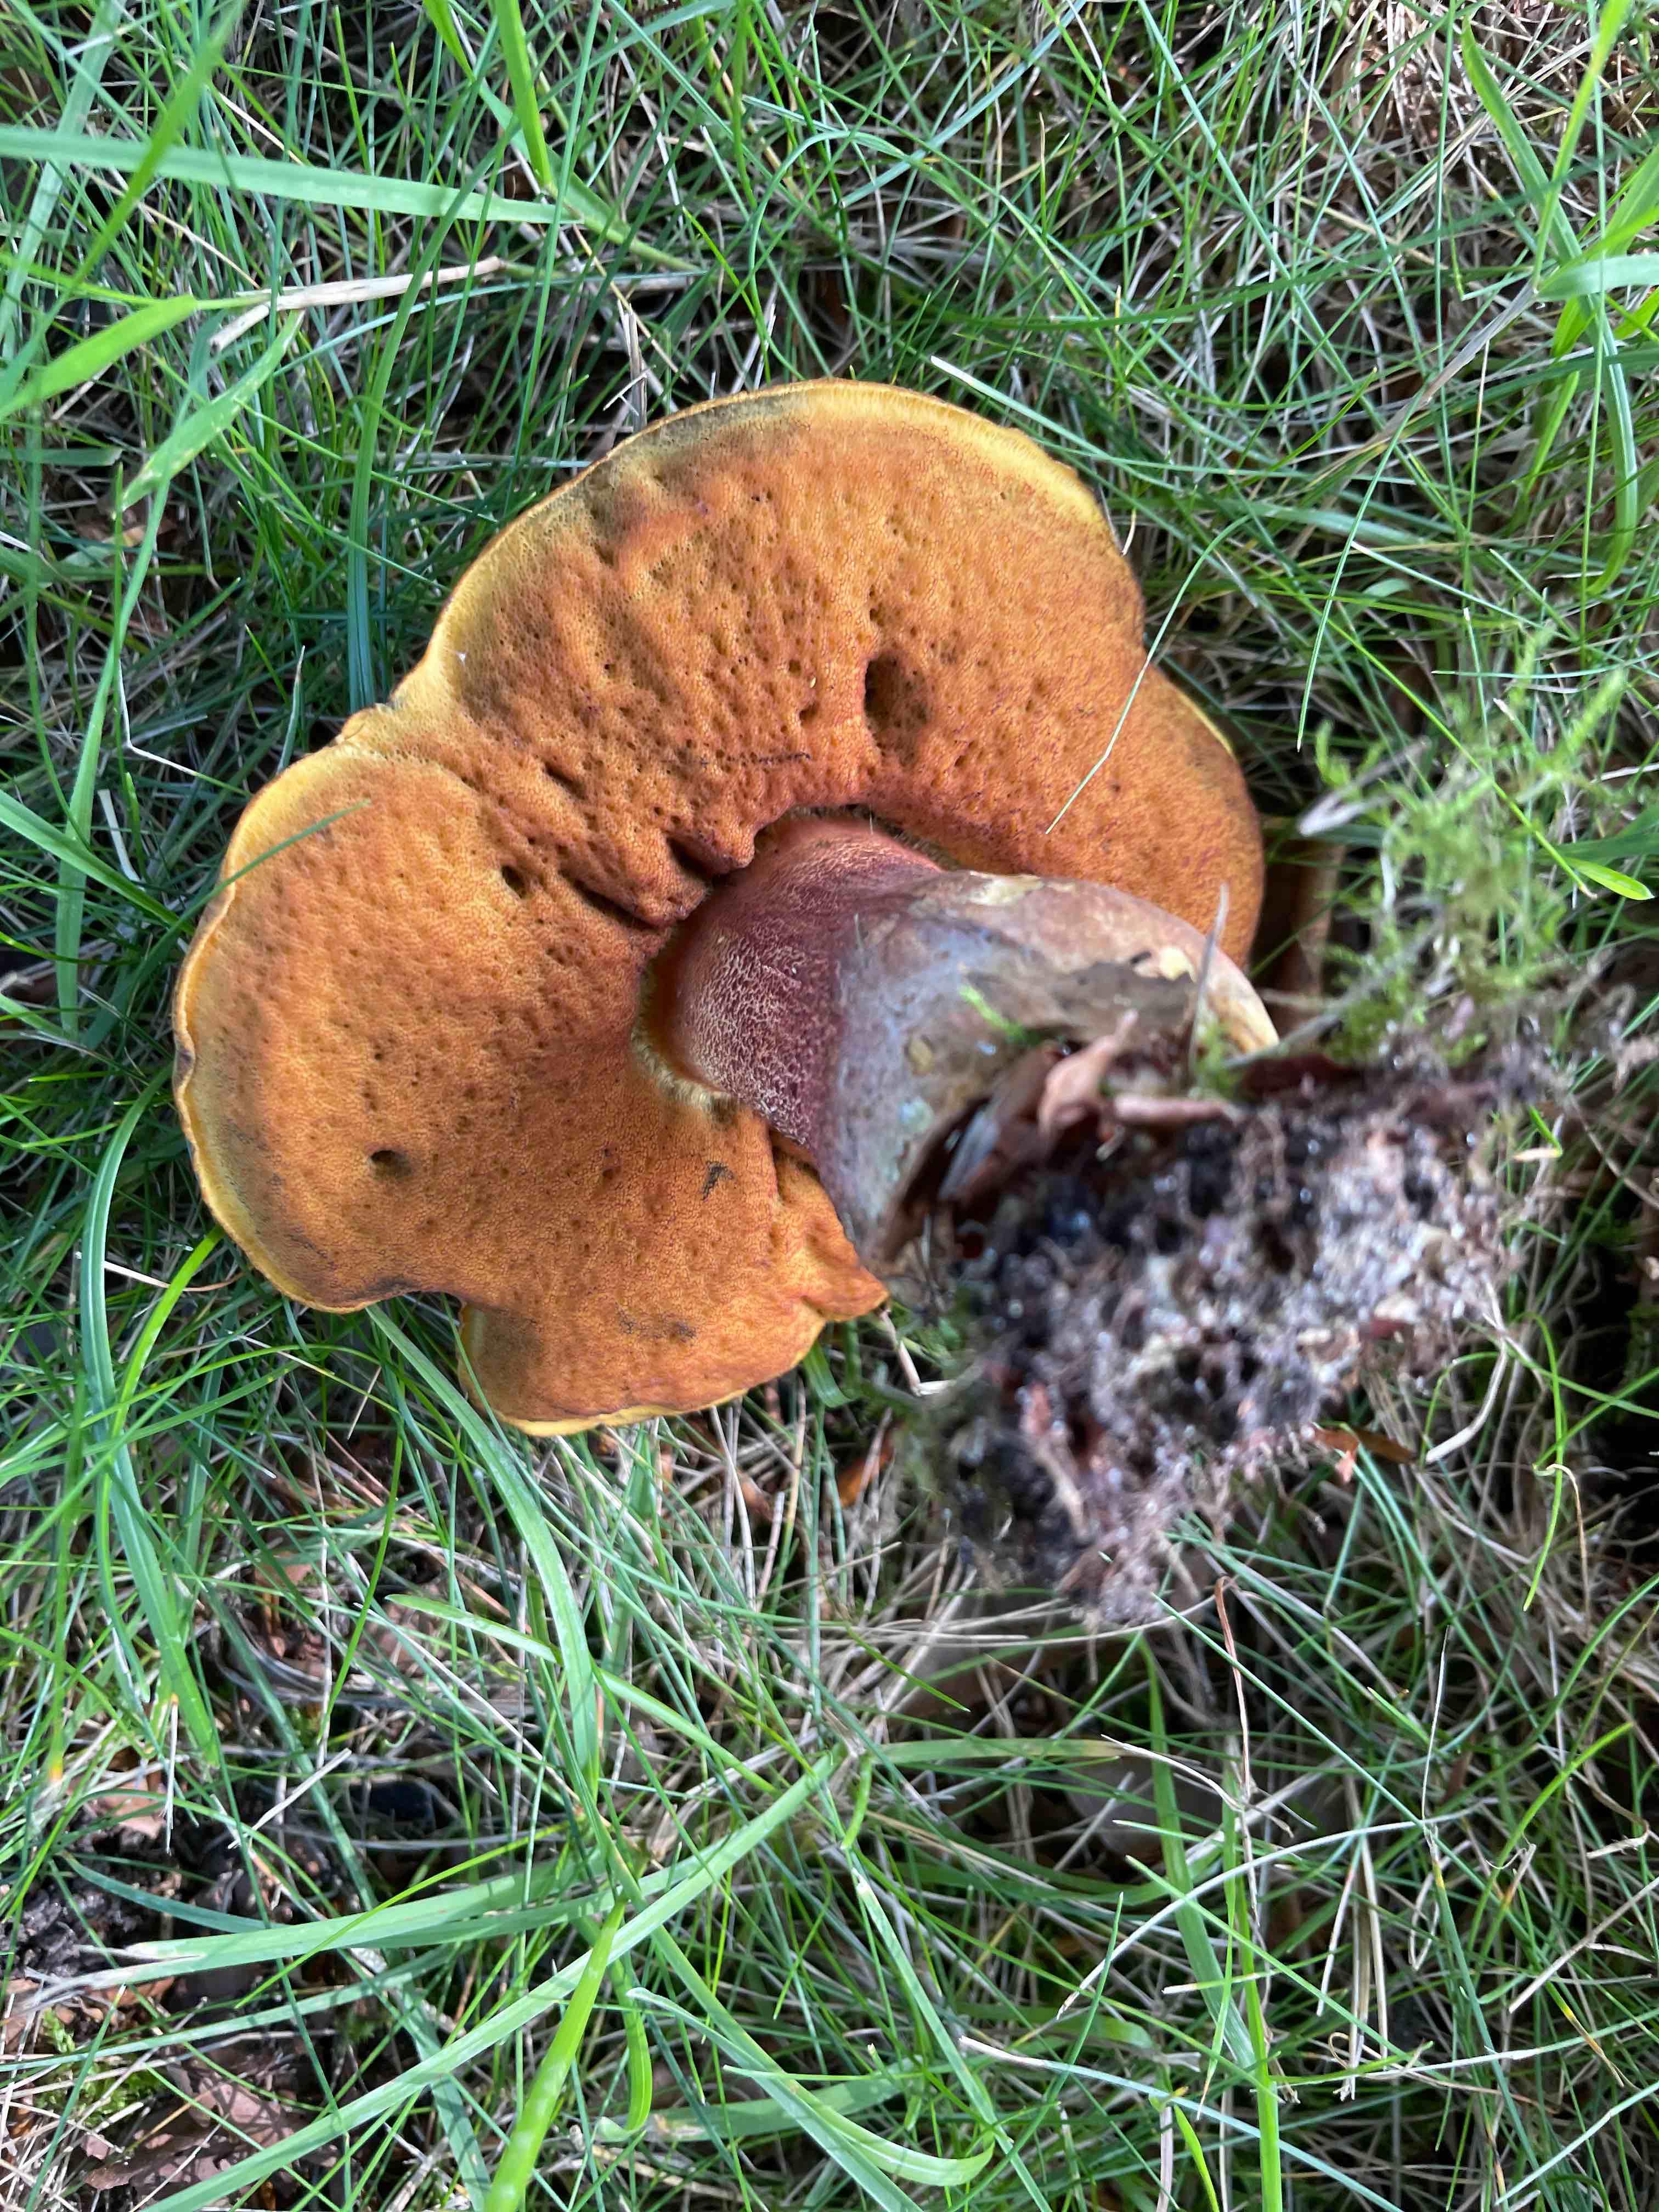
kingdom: Fungi
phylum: Basidiomycota
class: Agaricomycetes
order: Boletales
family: Boletaceae
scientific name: Boletaceae
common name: rørhatfamilien
